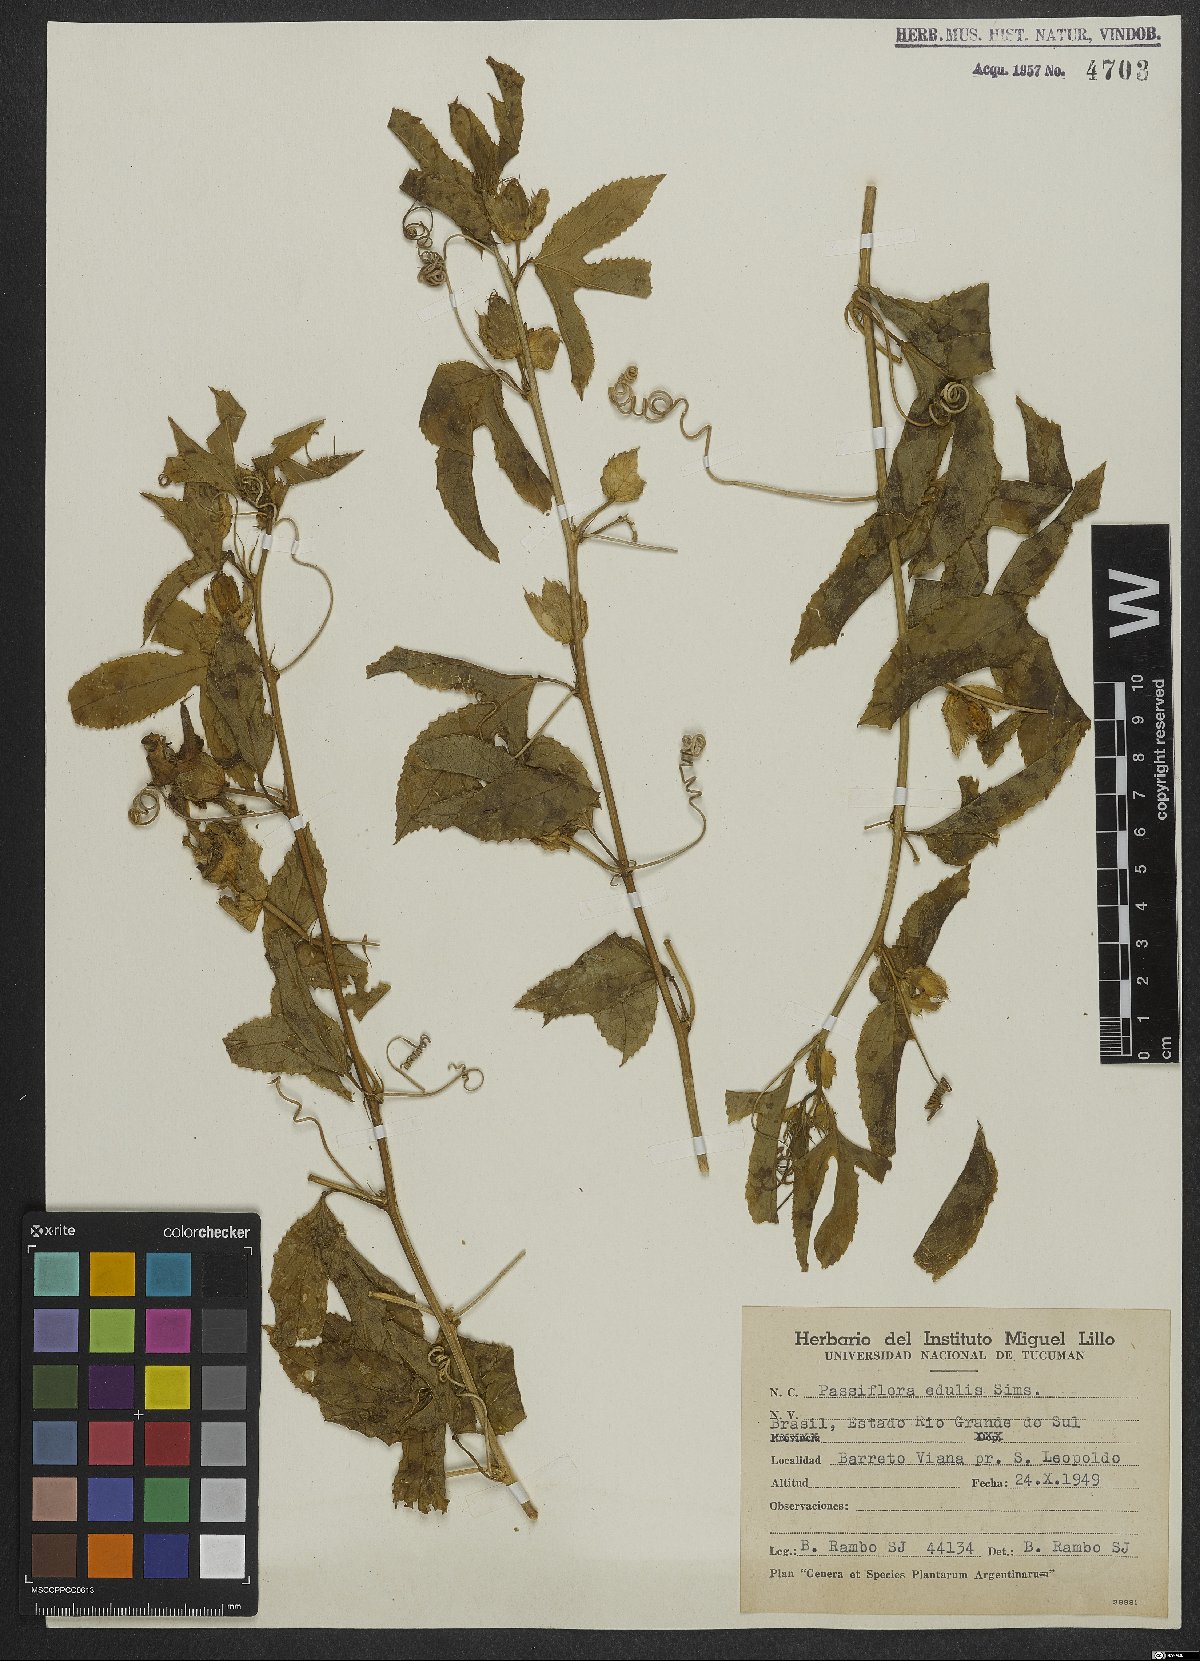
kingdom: Plantae
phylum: Tracheophyta
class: Magnoliopsida
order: Malpighiales
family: Passifloraceae
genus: Passiflora
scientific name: Passiflora edulis
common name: Purple granadilla
